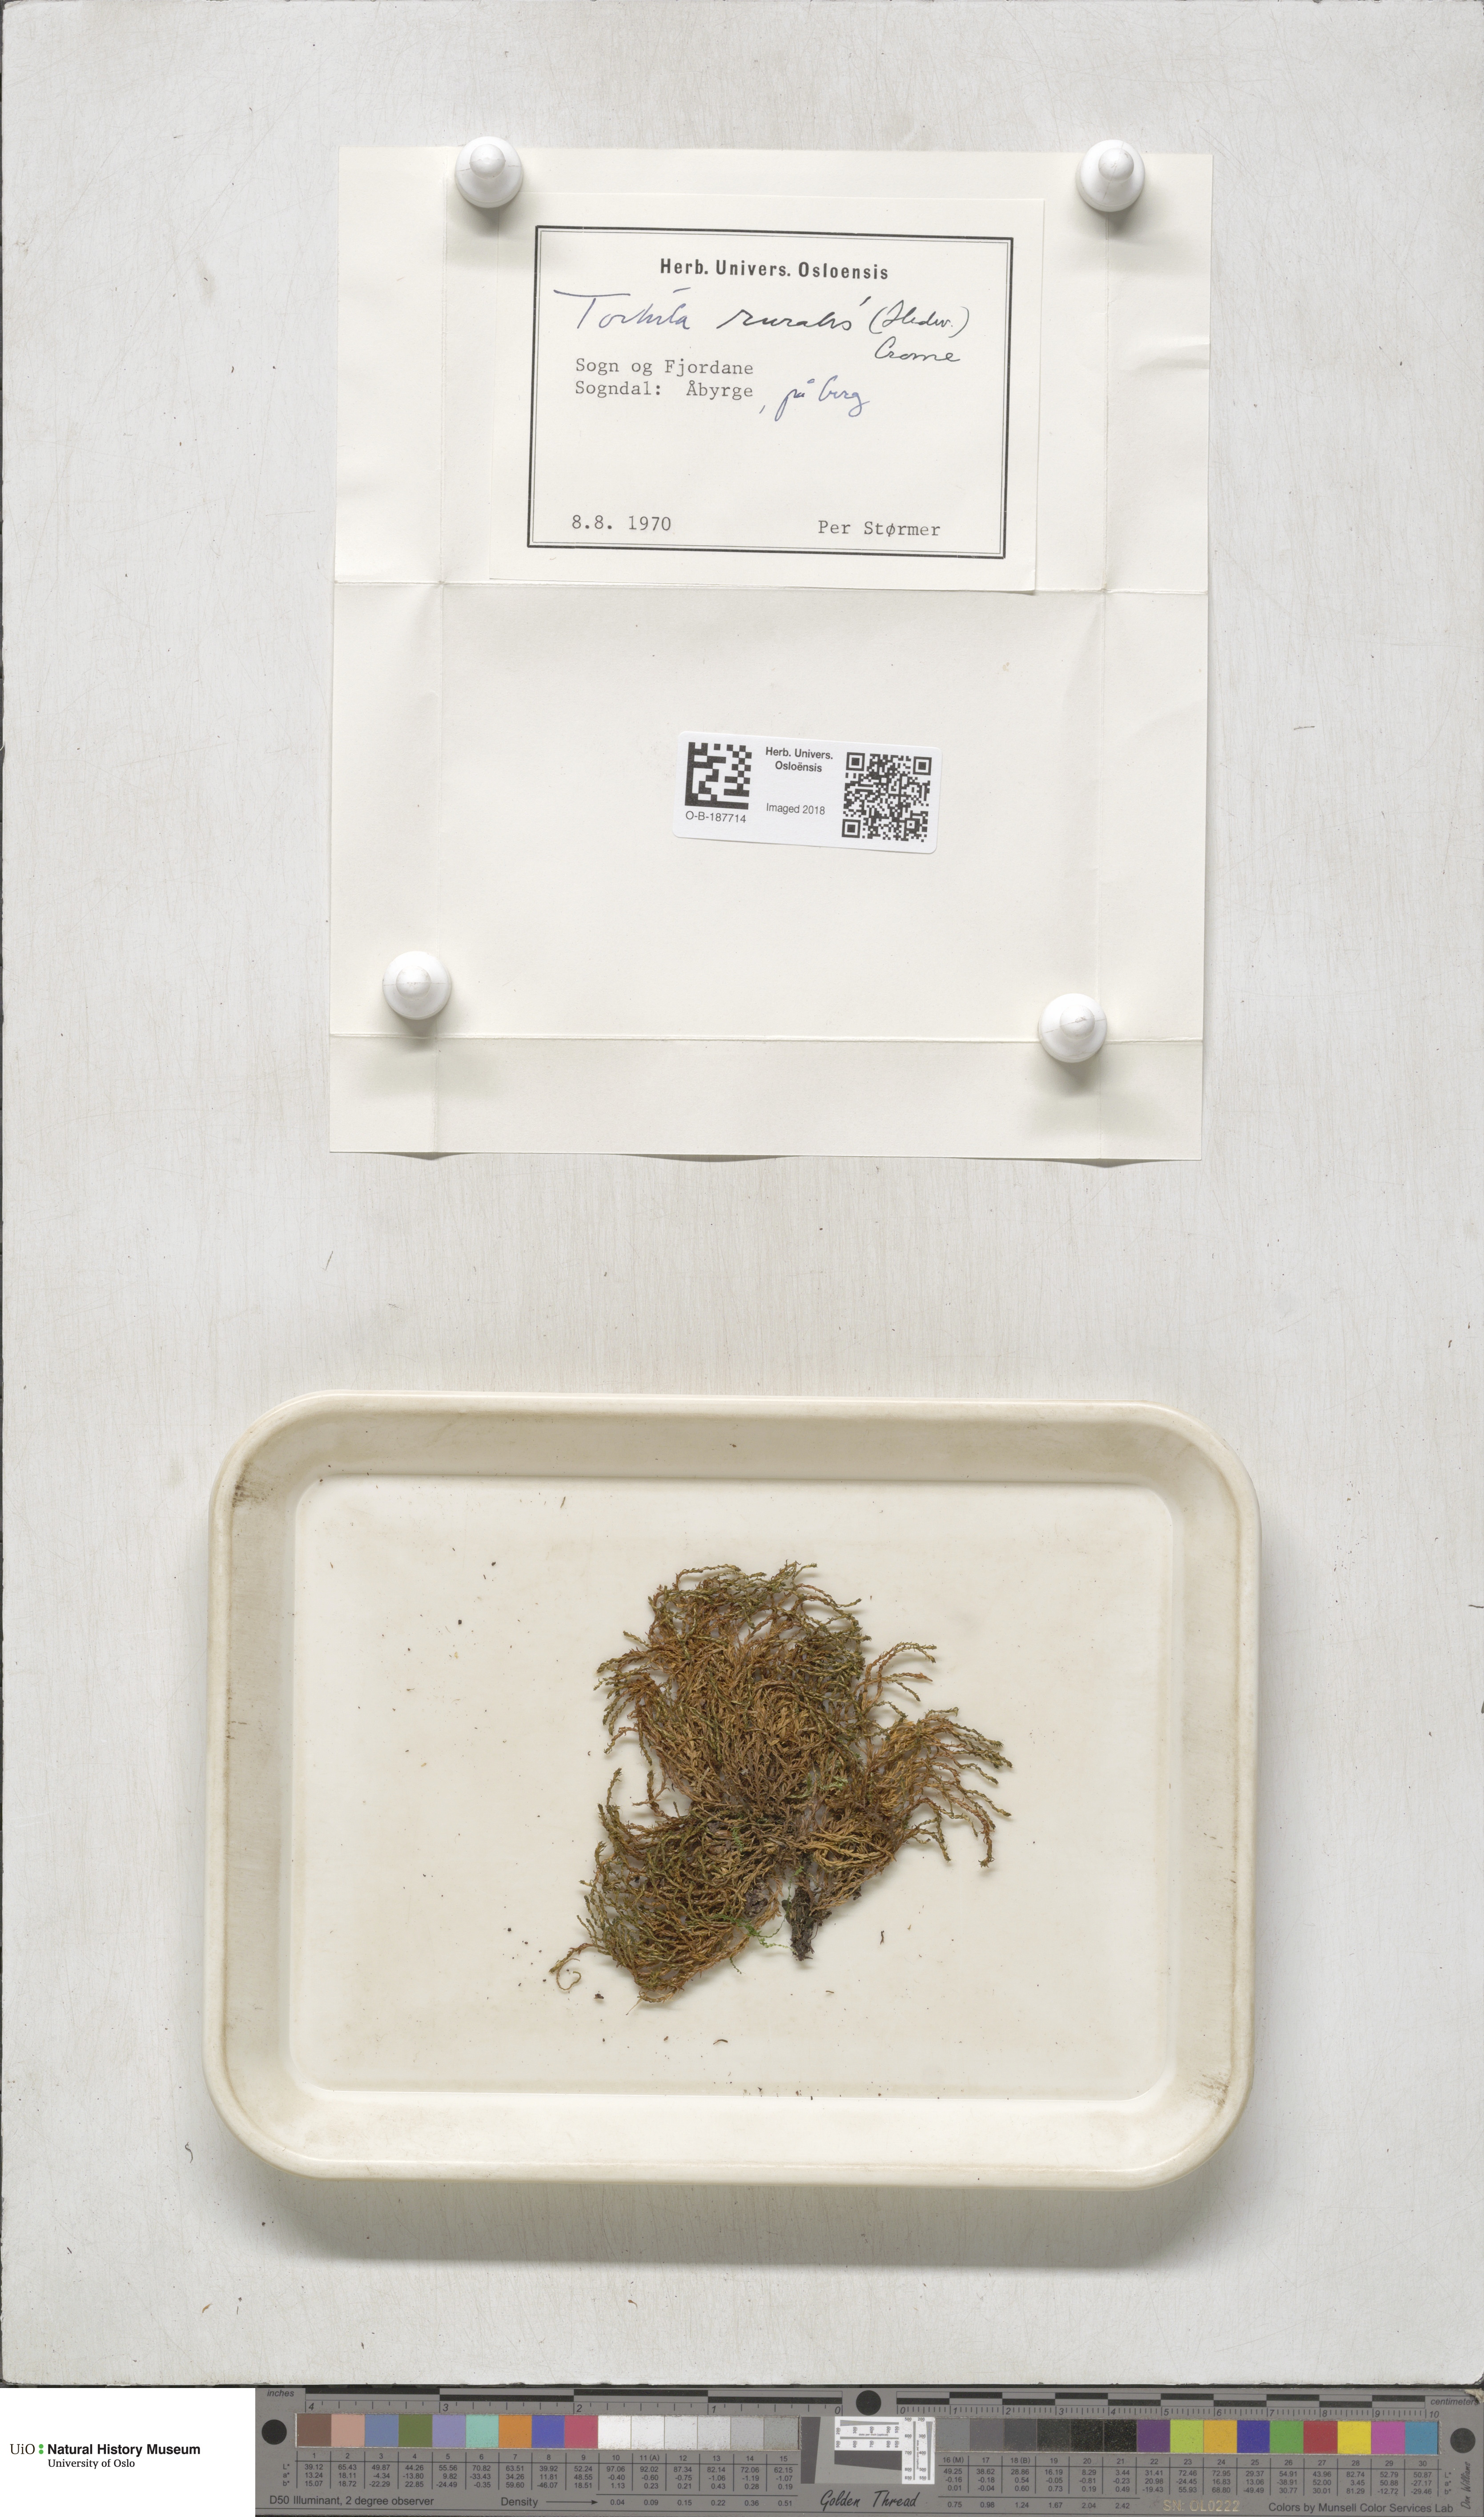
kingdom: Plantae
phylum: Bryophyta
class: Bryopsida
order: Pottiales
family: Pottiaceae
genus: Syntrichia
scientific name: Syntrichia ruralis
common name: Sidewalk screw moss
